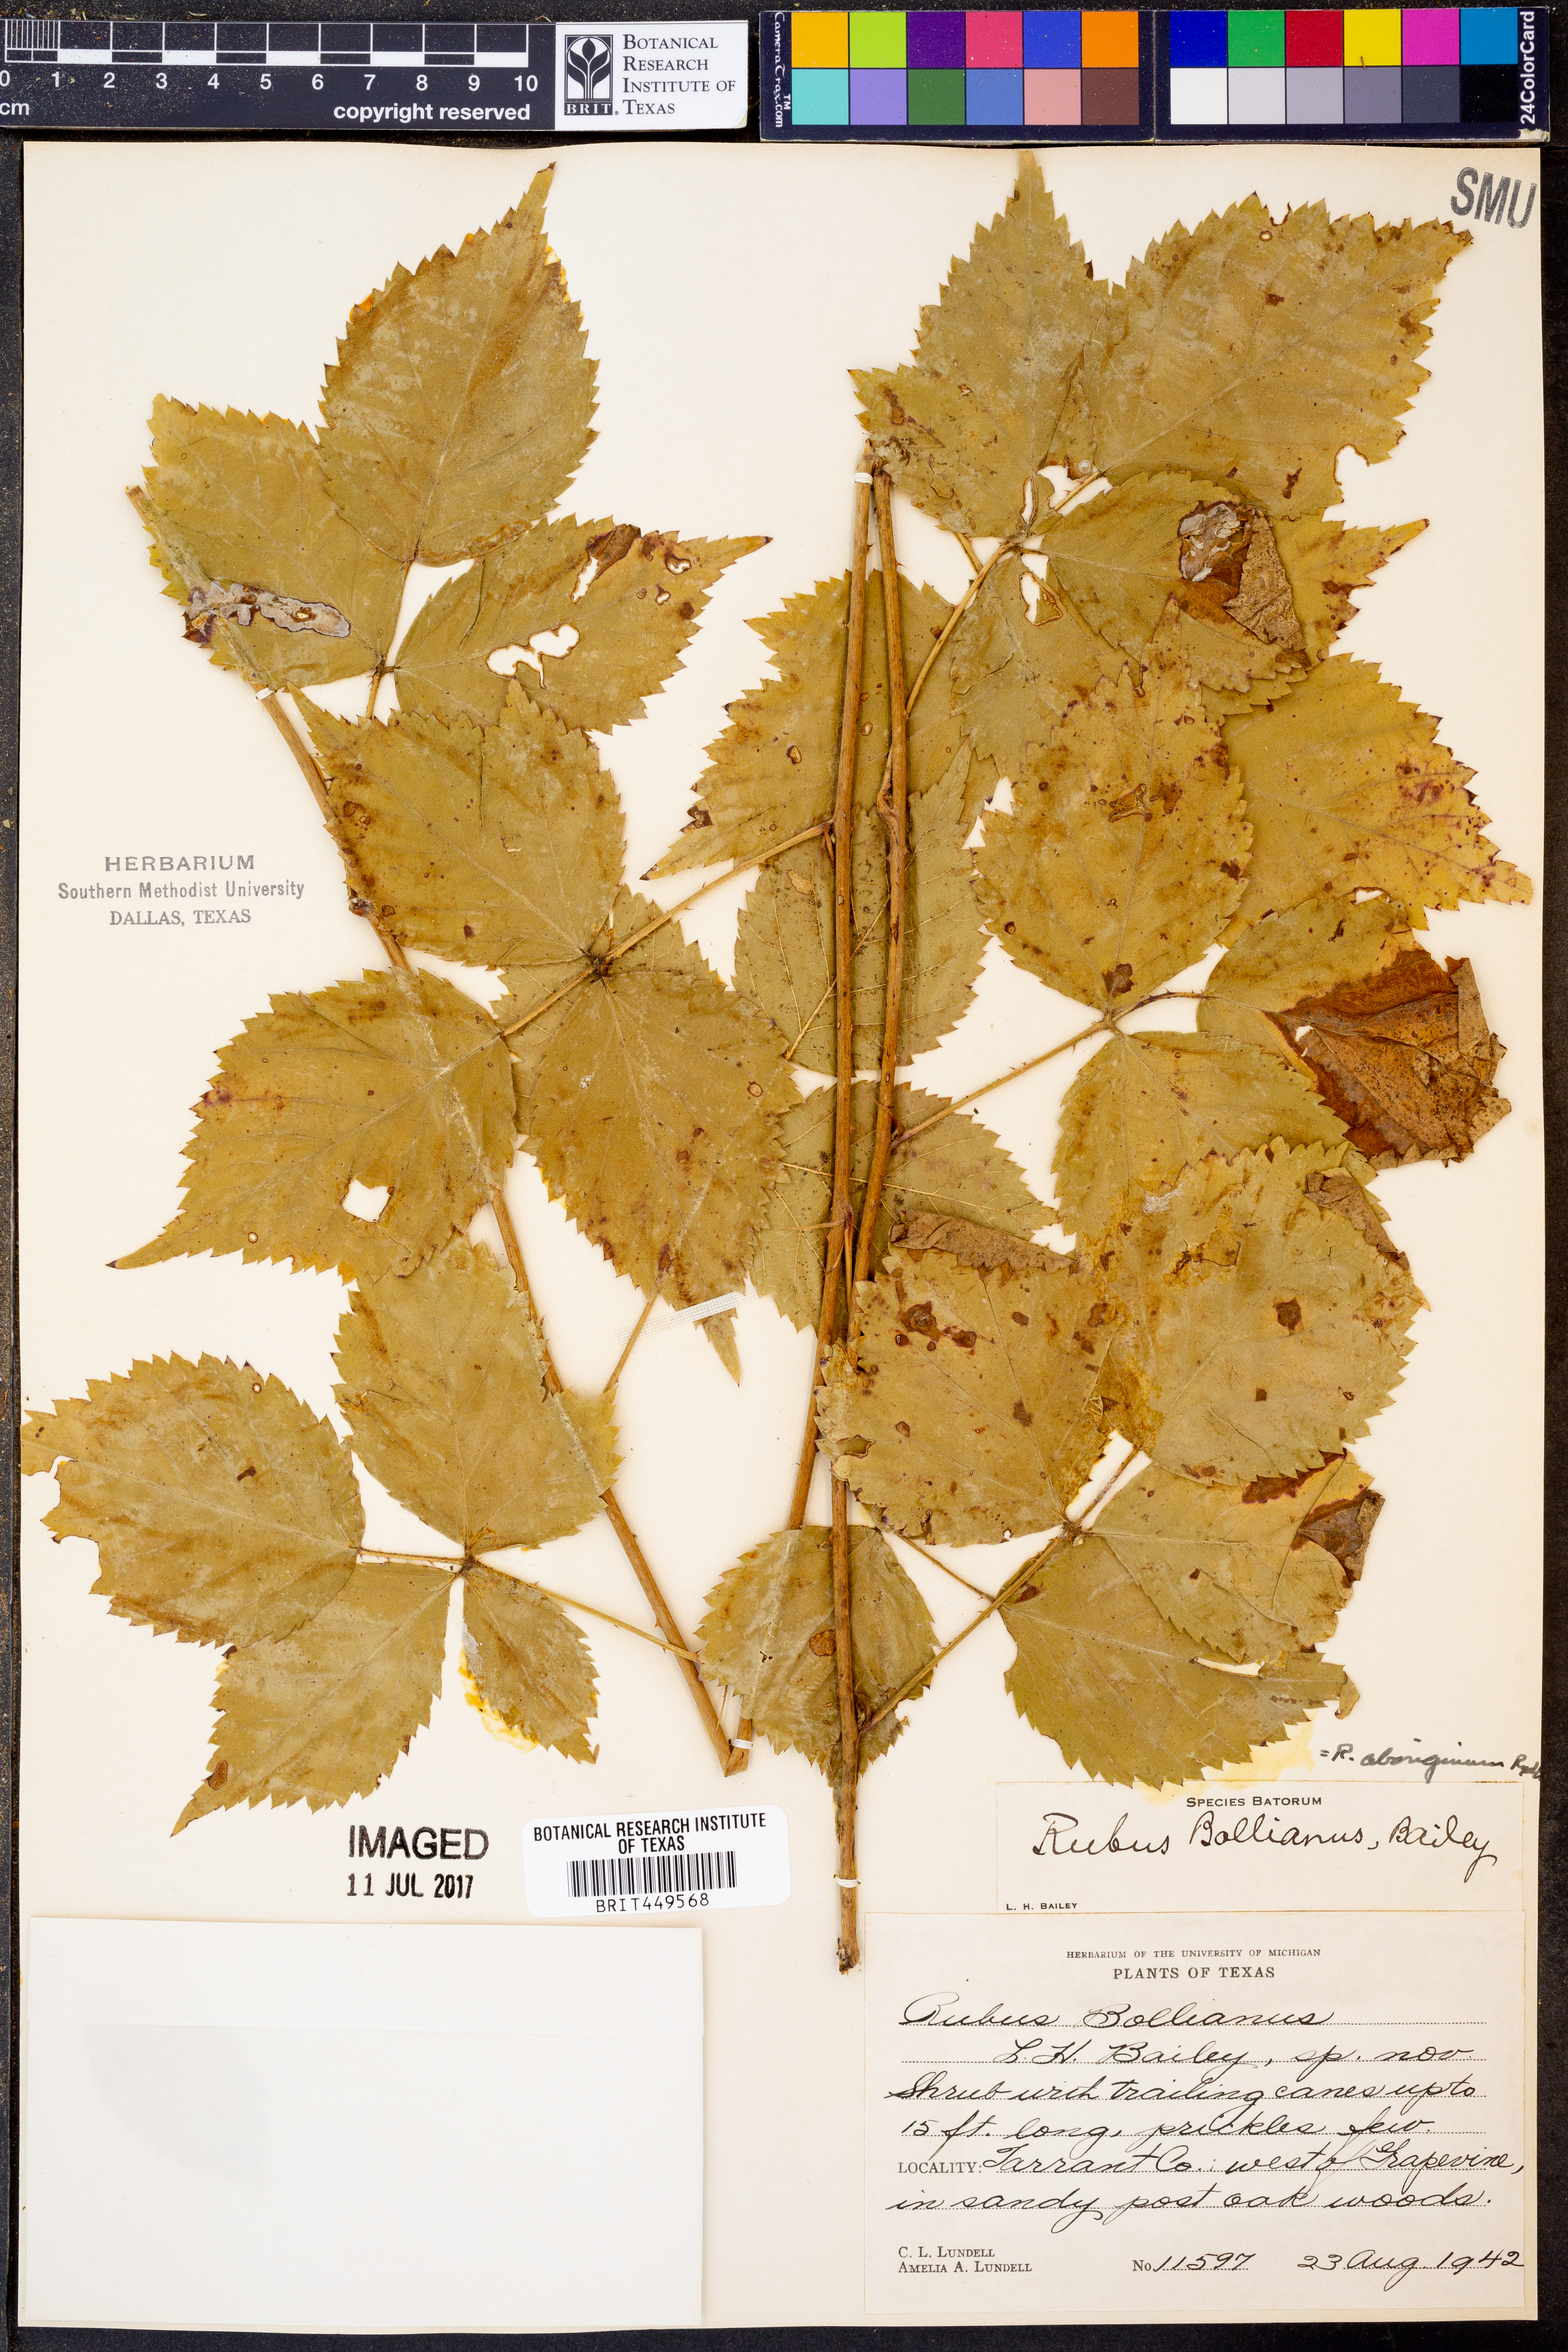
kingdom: Plantae
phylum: Tracheophyta
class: Magnoliopsida
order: Rosales
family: Rosaceae
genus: Rubus
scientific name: Rubus aboriginum
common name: Mayes dewberry
